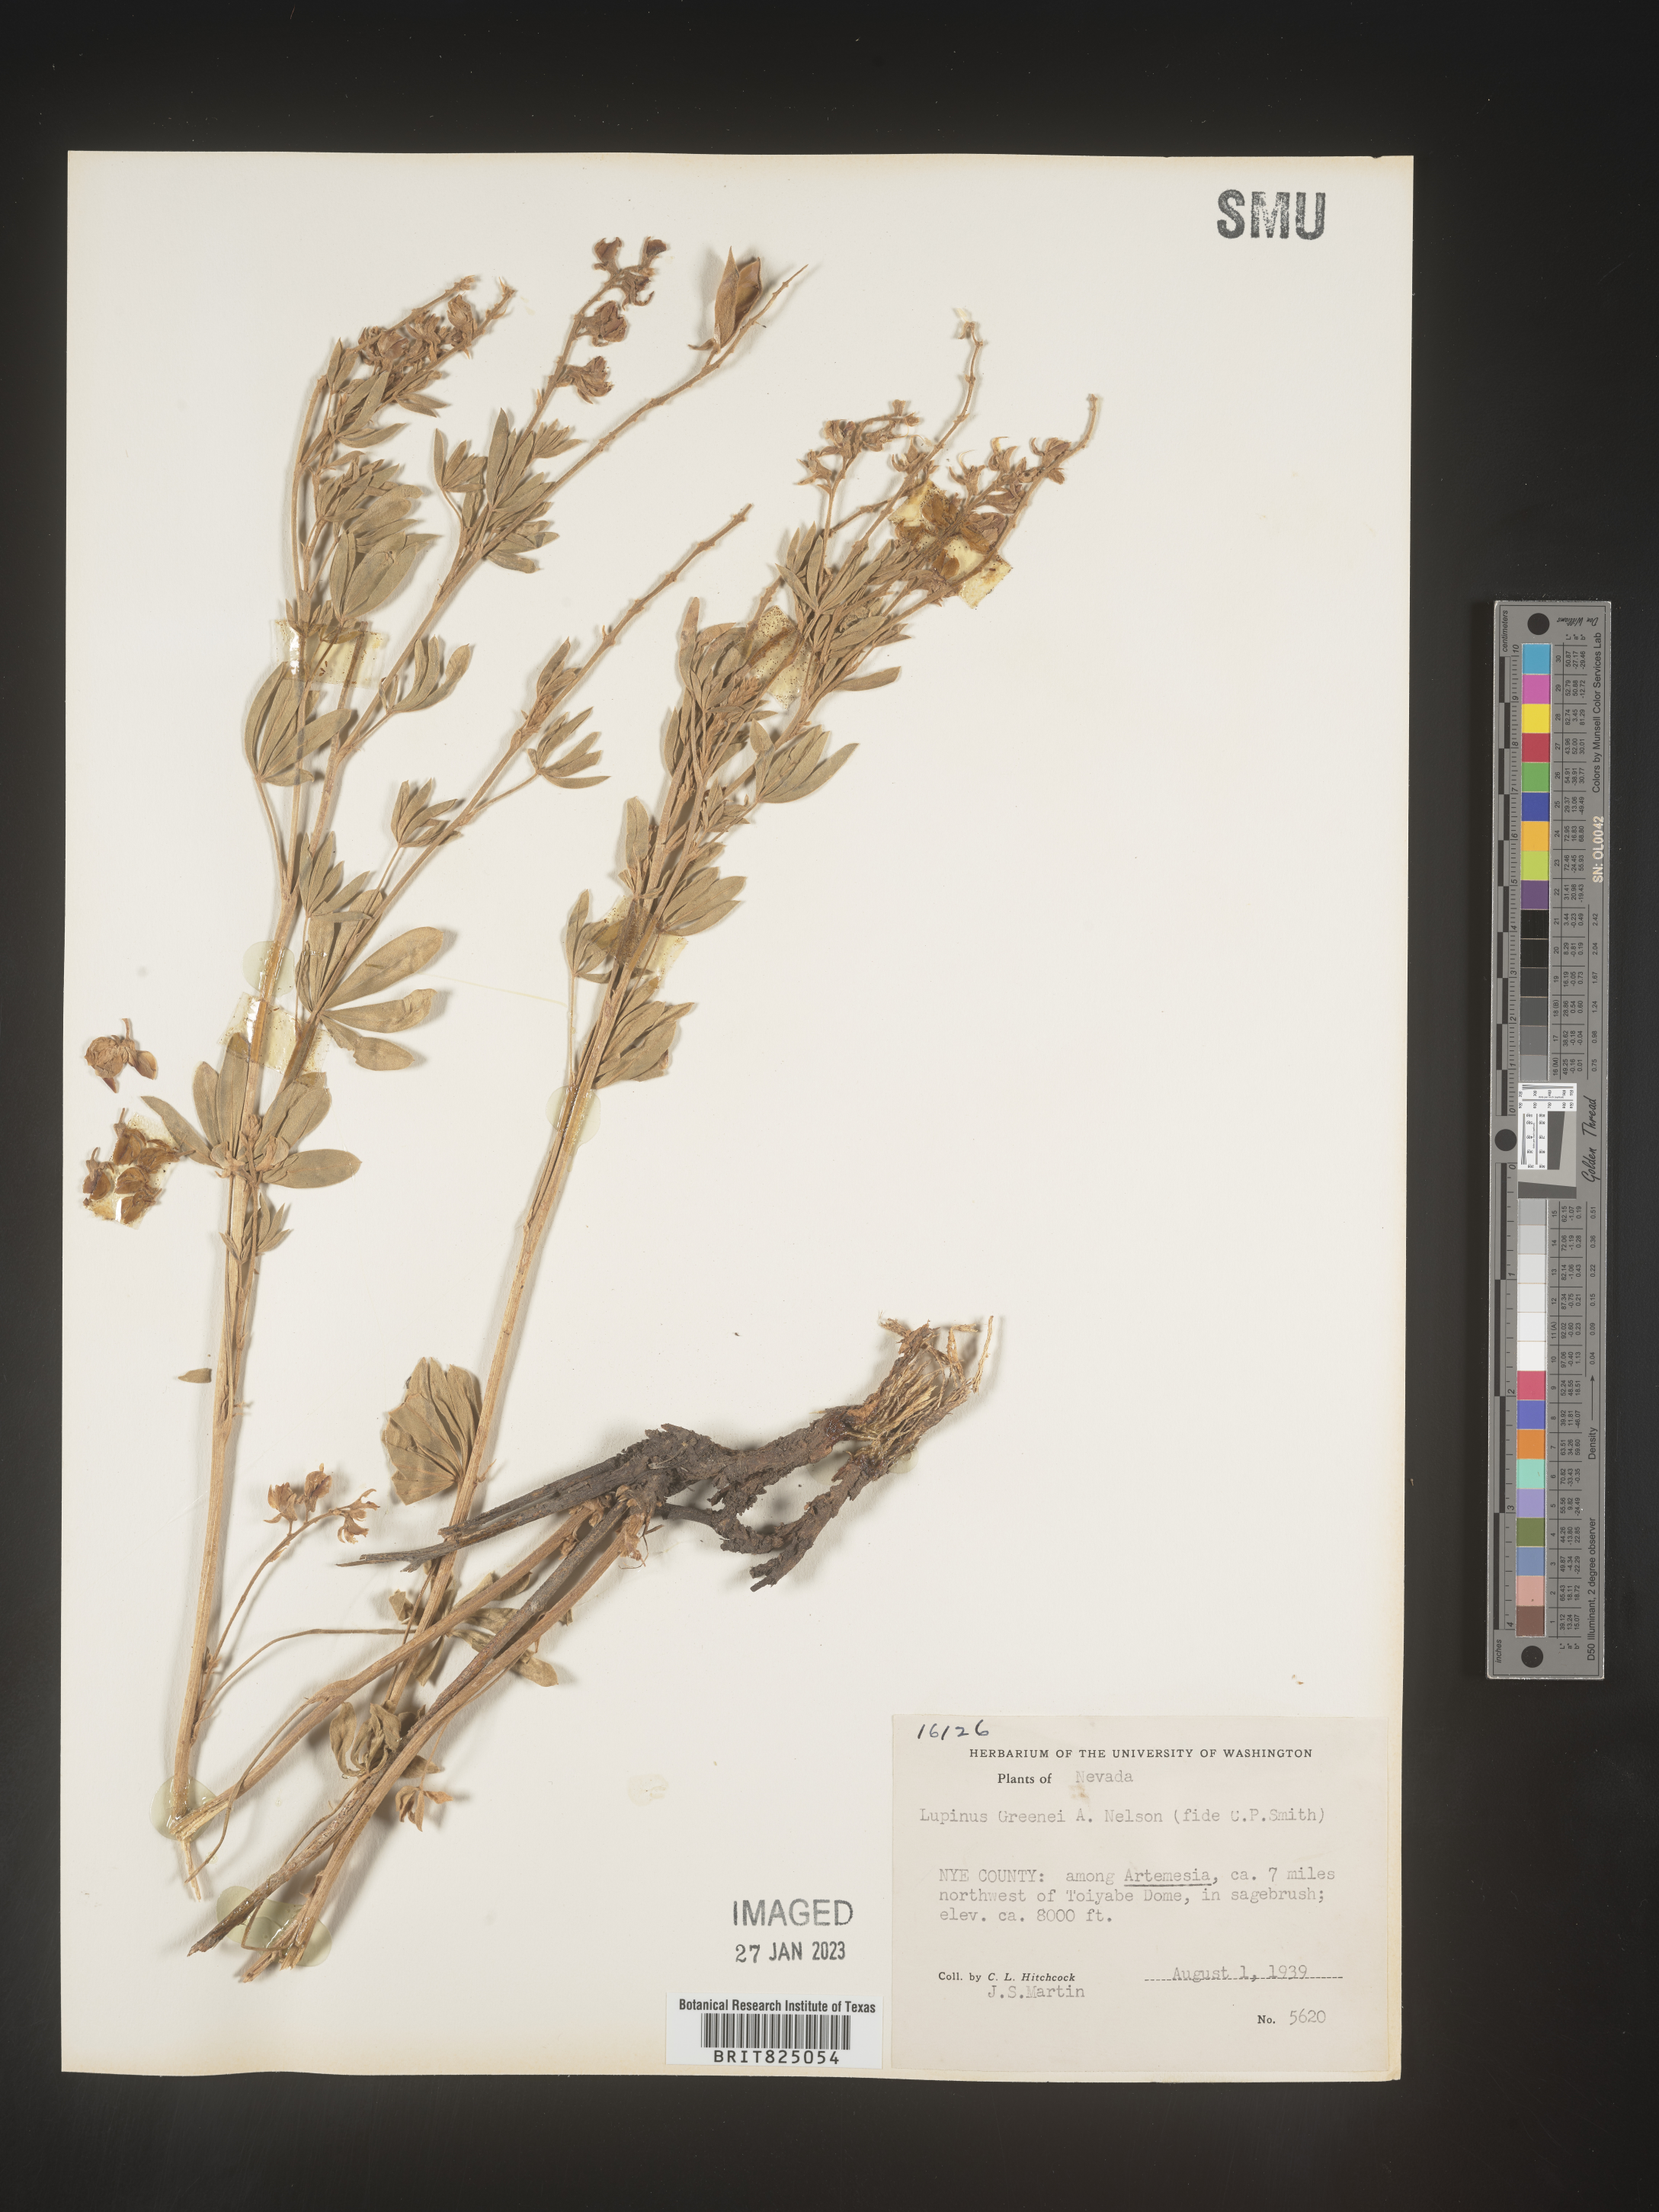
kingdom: Plantae
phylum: Tracheophyta
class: Magnoliopsida
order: Fabales
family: Fabaceae
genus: Lupinus
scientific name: Lupinus
